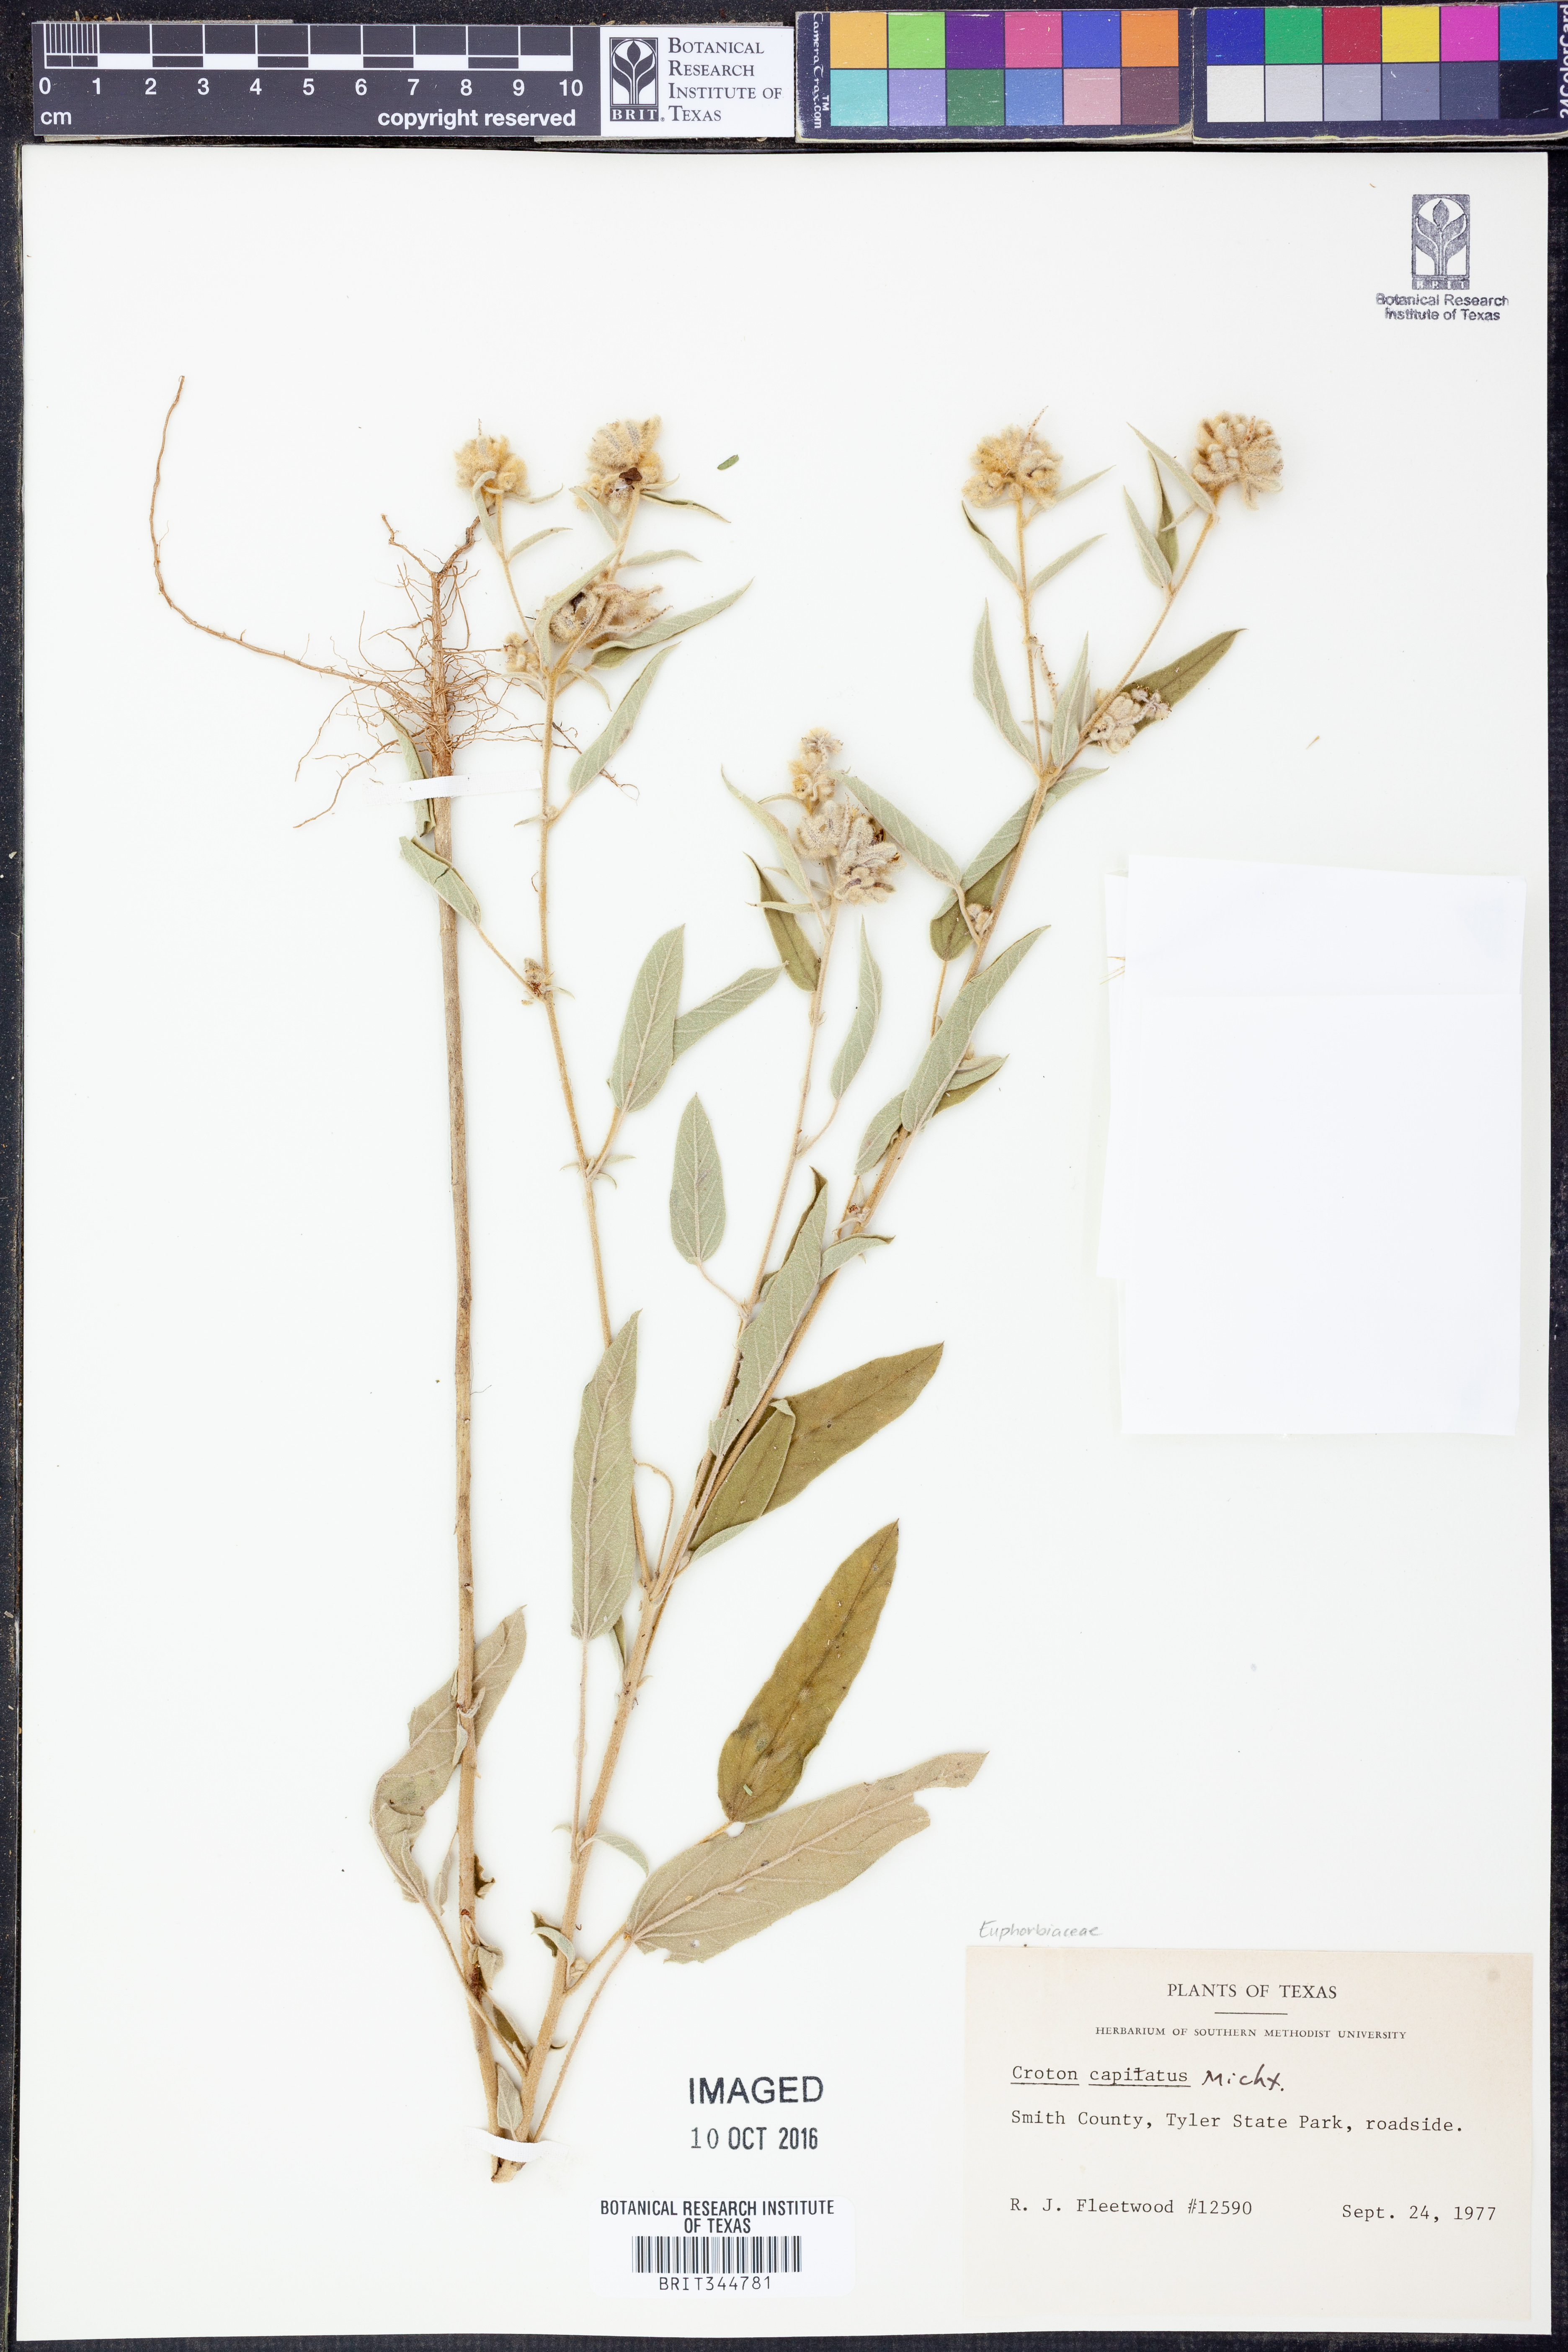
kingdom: Plantae
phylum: Tracheophyta
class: Magnoliopsida
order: Malpighiales
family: Euphorbiaceae
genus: Croton
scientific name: Croton capitatus
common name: Woolly croton
